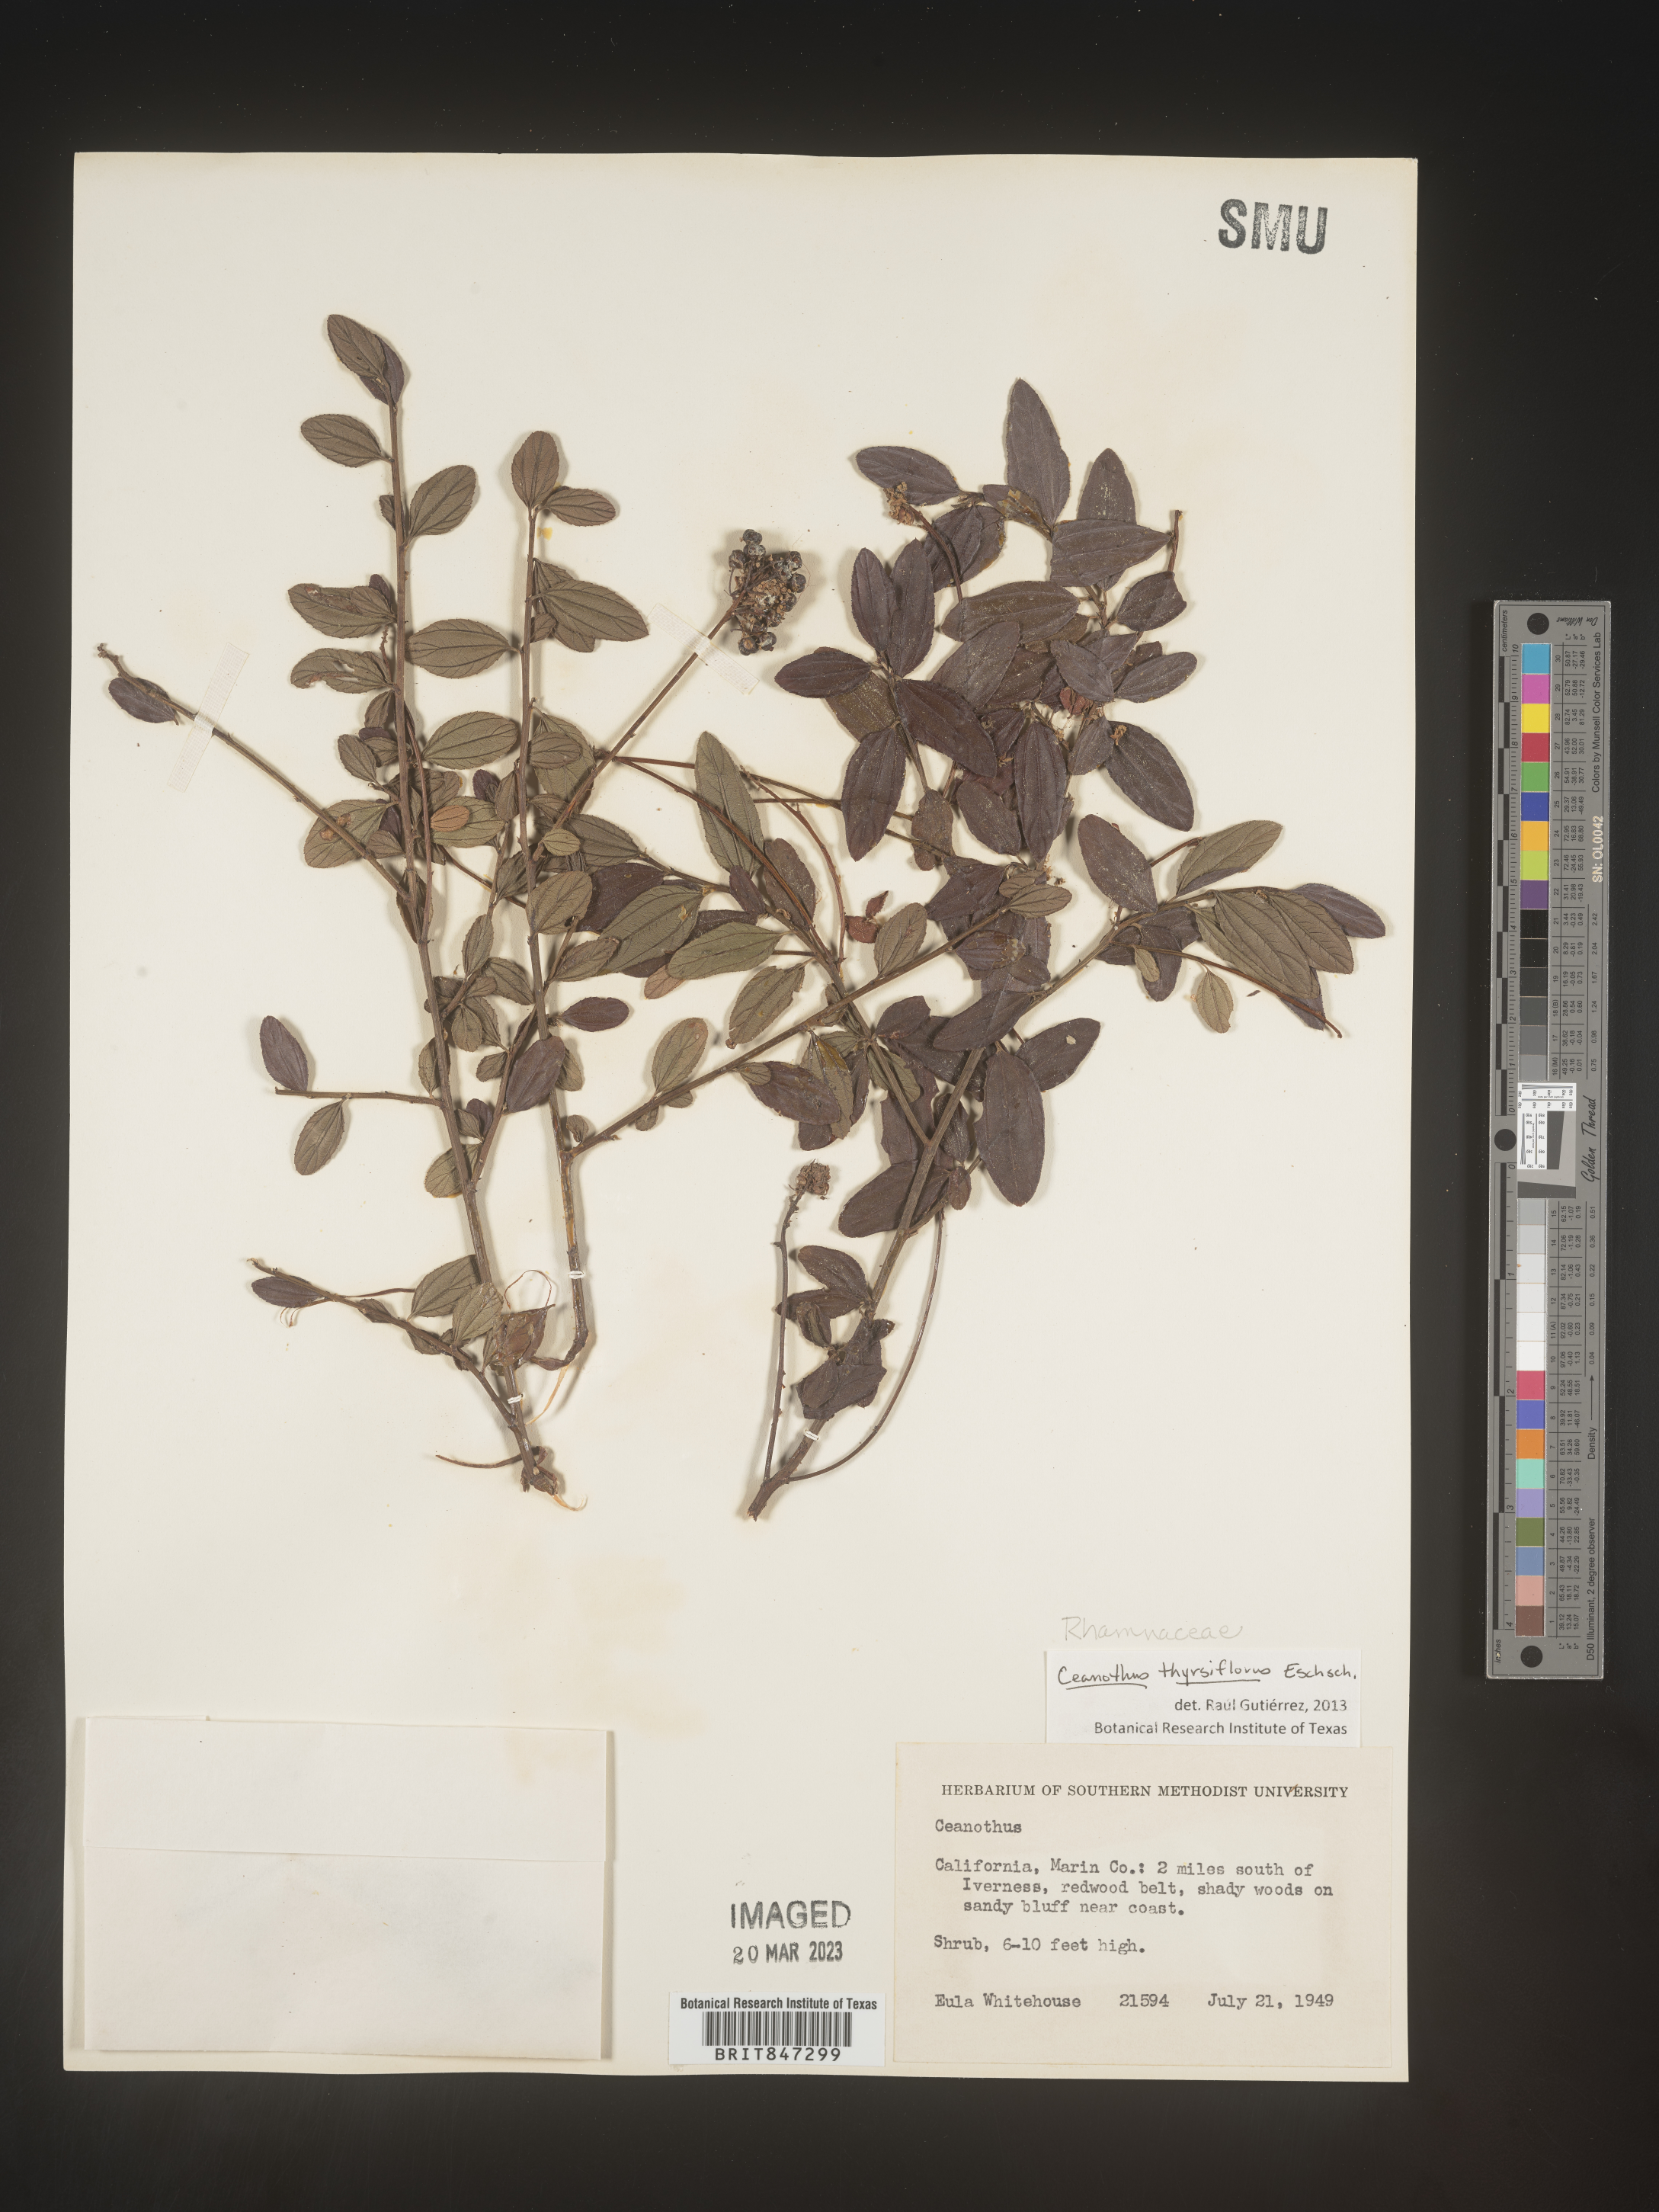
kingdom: Plantae
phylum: Tracheophyta
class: Magnoliopsida
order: Rosales
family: Rhamnaceae
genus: Ceanothus
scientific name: Ceanothus
